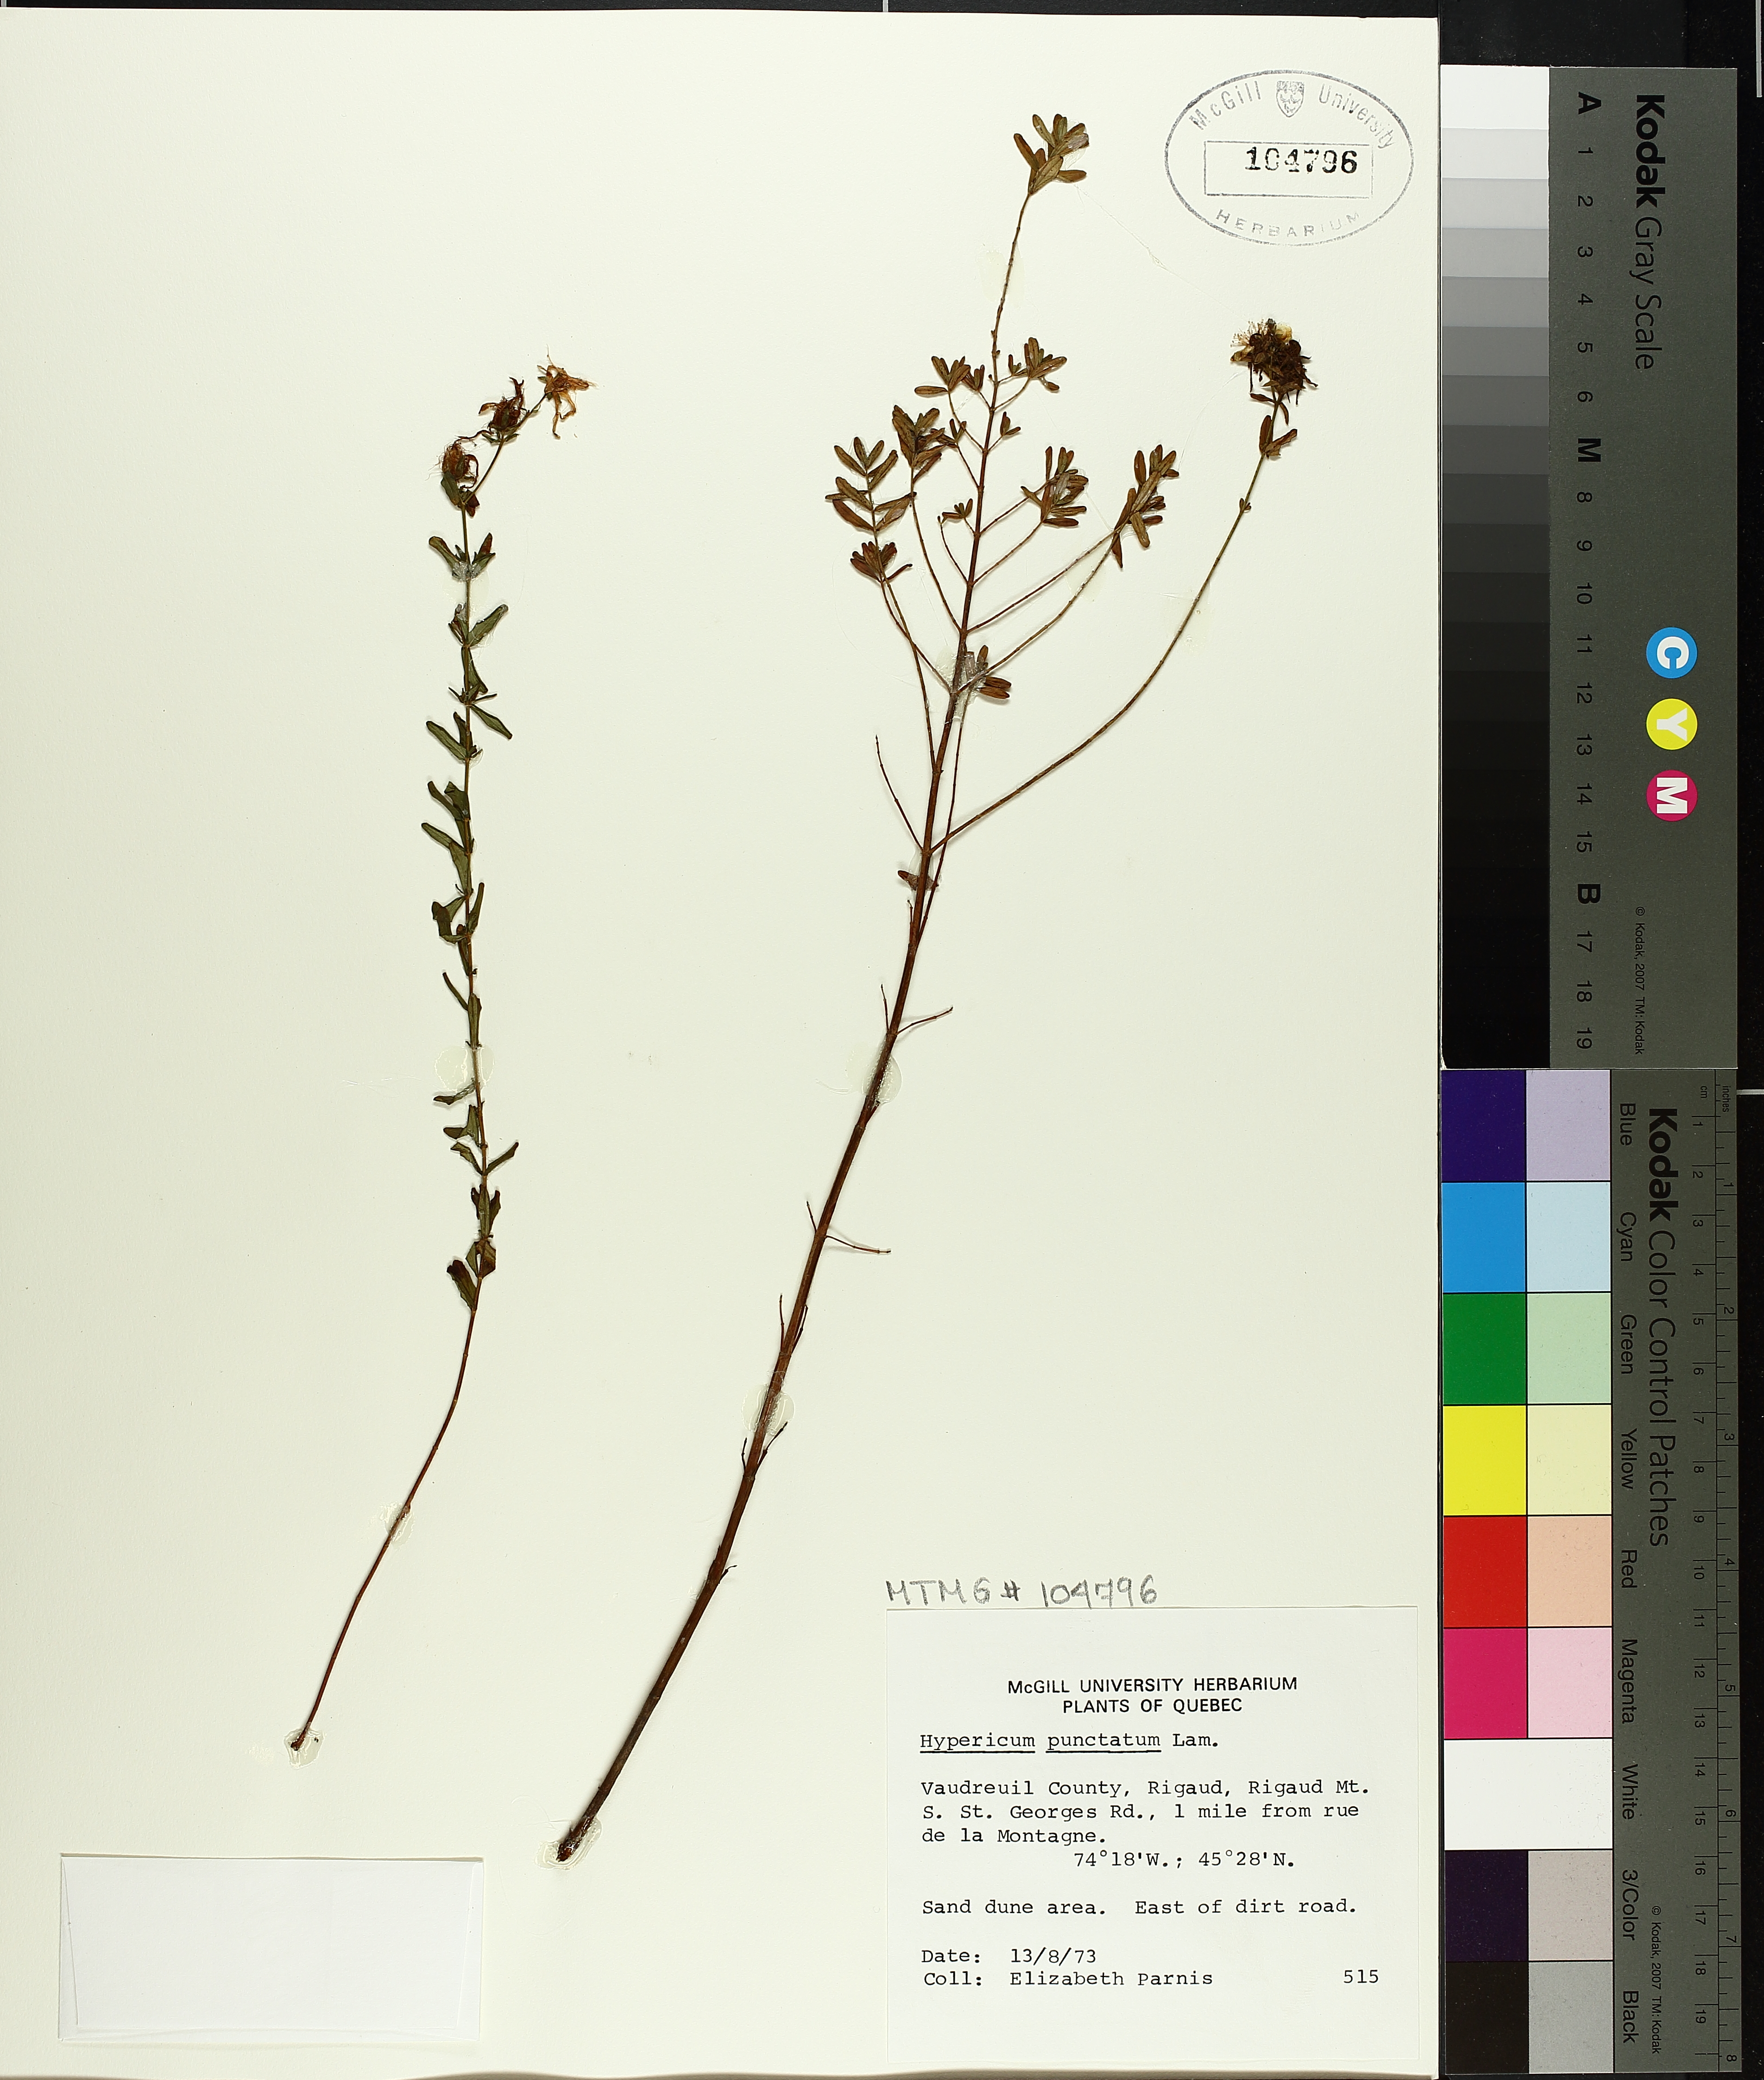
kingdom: Plantae
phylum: Tracheophyta
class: Magnoliopsida
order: Malpighiales
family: Hypericaceae
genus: Hypericum
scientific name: Hypericum punctatum
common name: Spotted st. john's-wort
